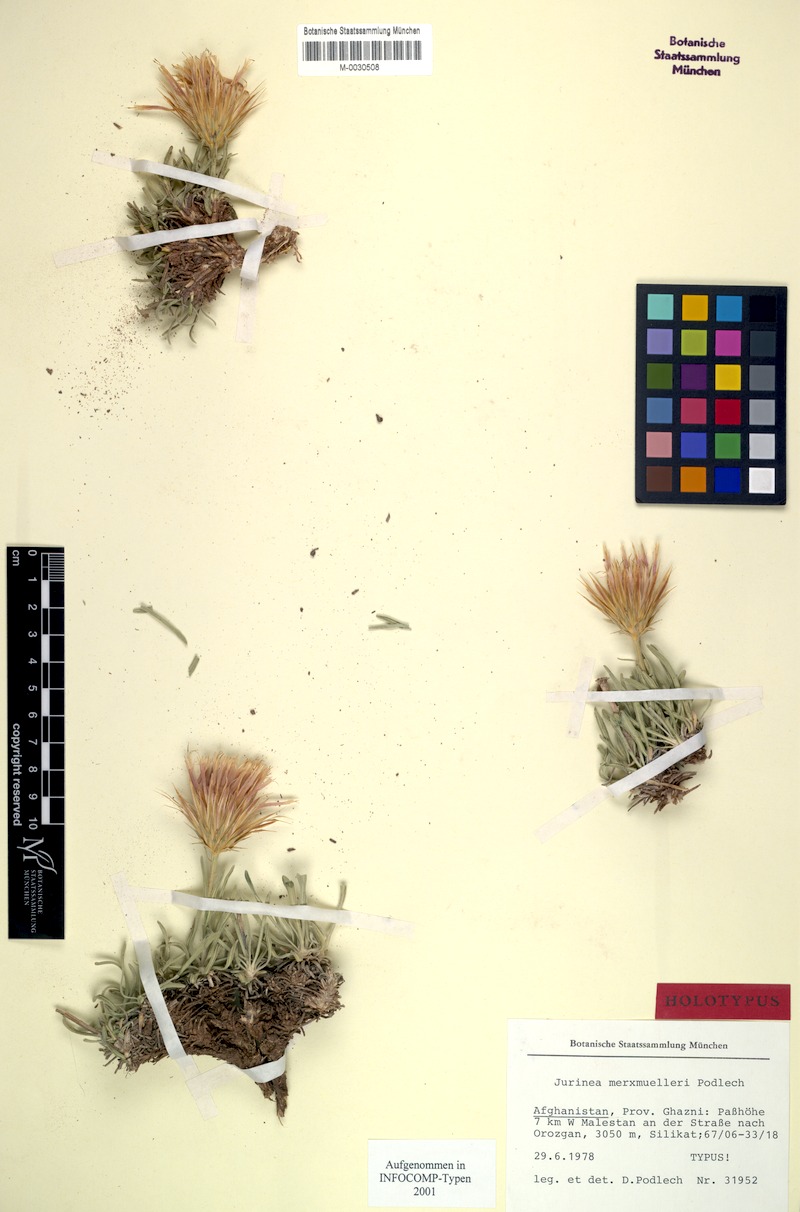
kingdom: Plantae
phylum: Tracheophyta
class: Magnoliopsida
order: Asterales
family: Asteraceae
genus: Jurinea
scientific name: Jurinea merxmuelleri
